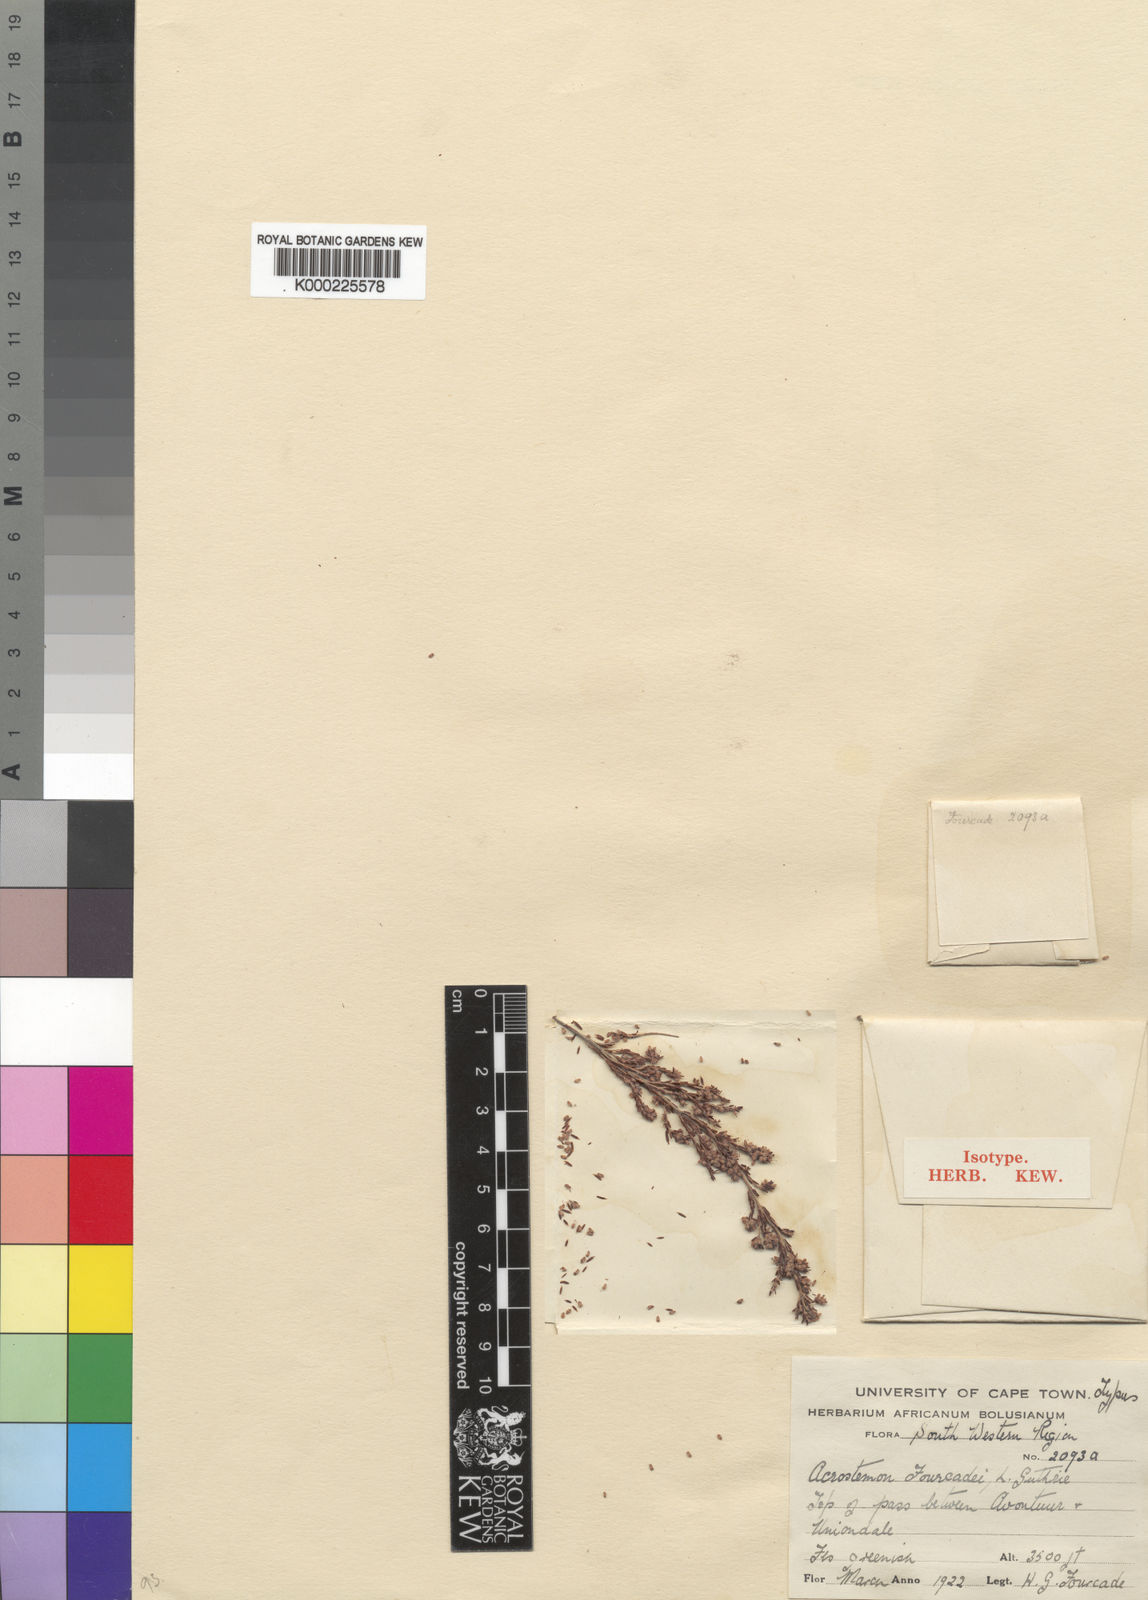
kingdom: Plantae
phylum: Tracheophyta
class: Magnoliopsida
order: Ericales
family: Ericaceae
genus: Erica
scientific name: Erica angulosa
